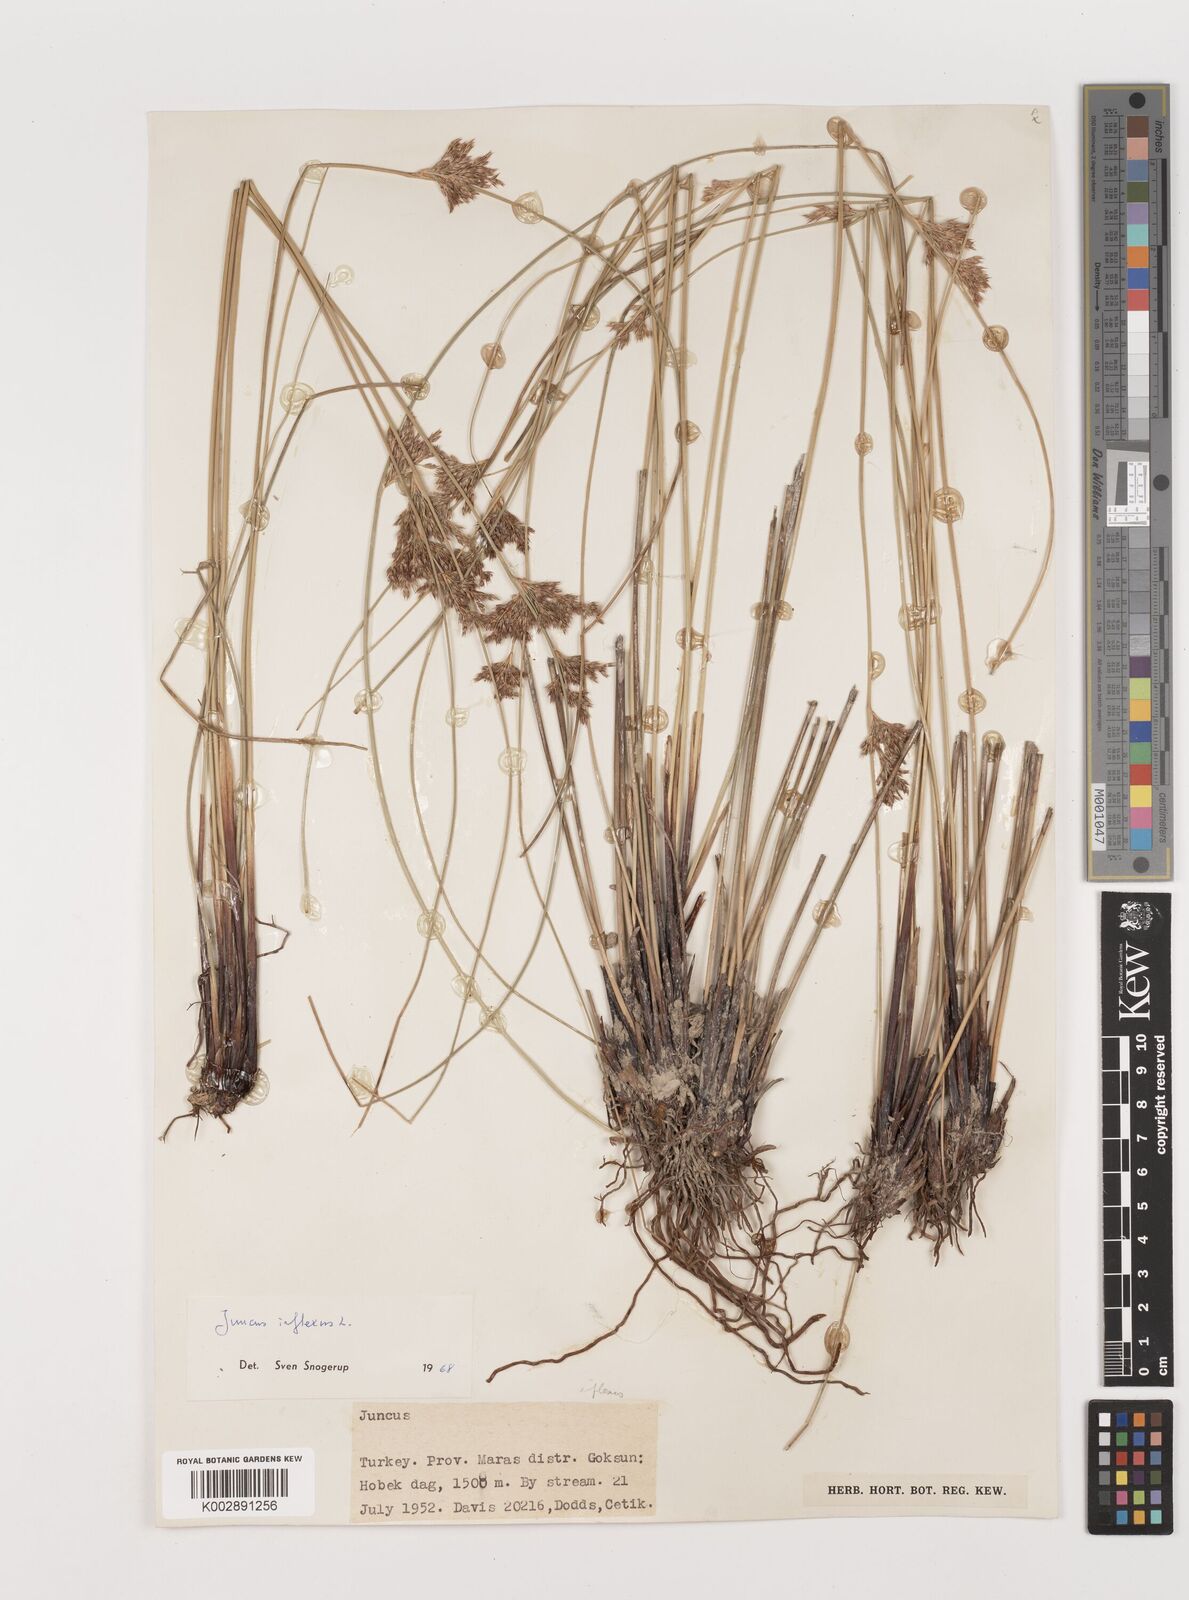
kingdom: Plantae
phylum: Tracheophyta
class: Liliopsida
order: Poales
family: Juncaceae
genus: Juncus
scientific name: Juncus inflexus
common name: Hard rush
